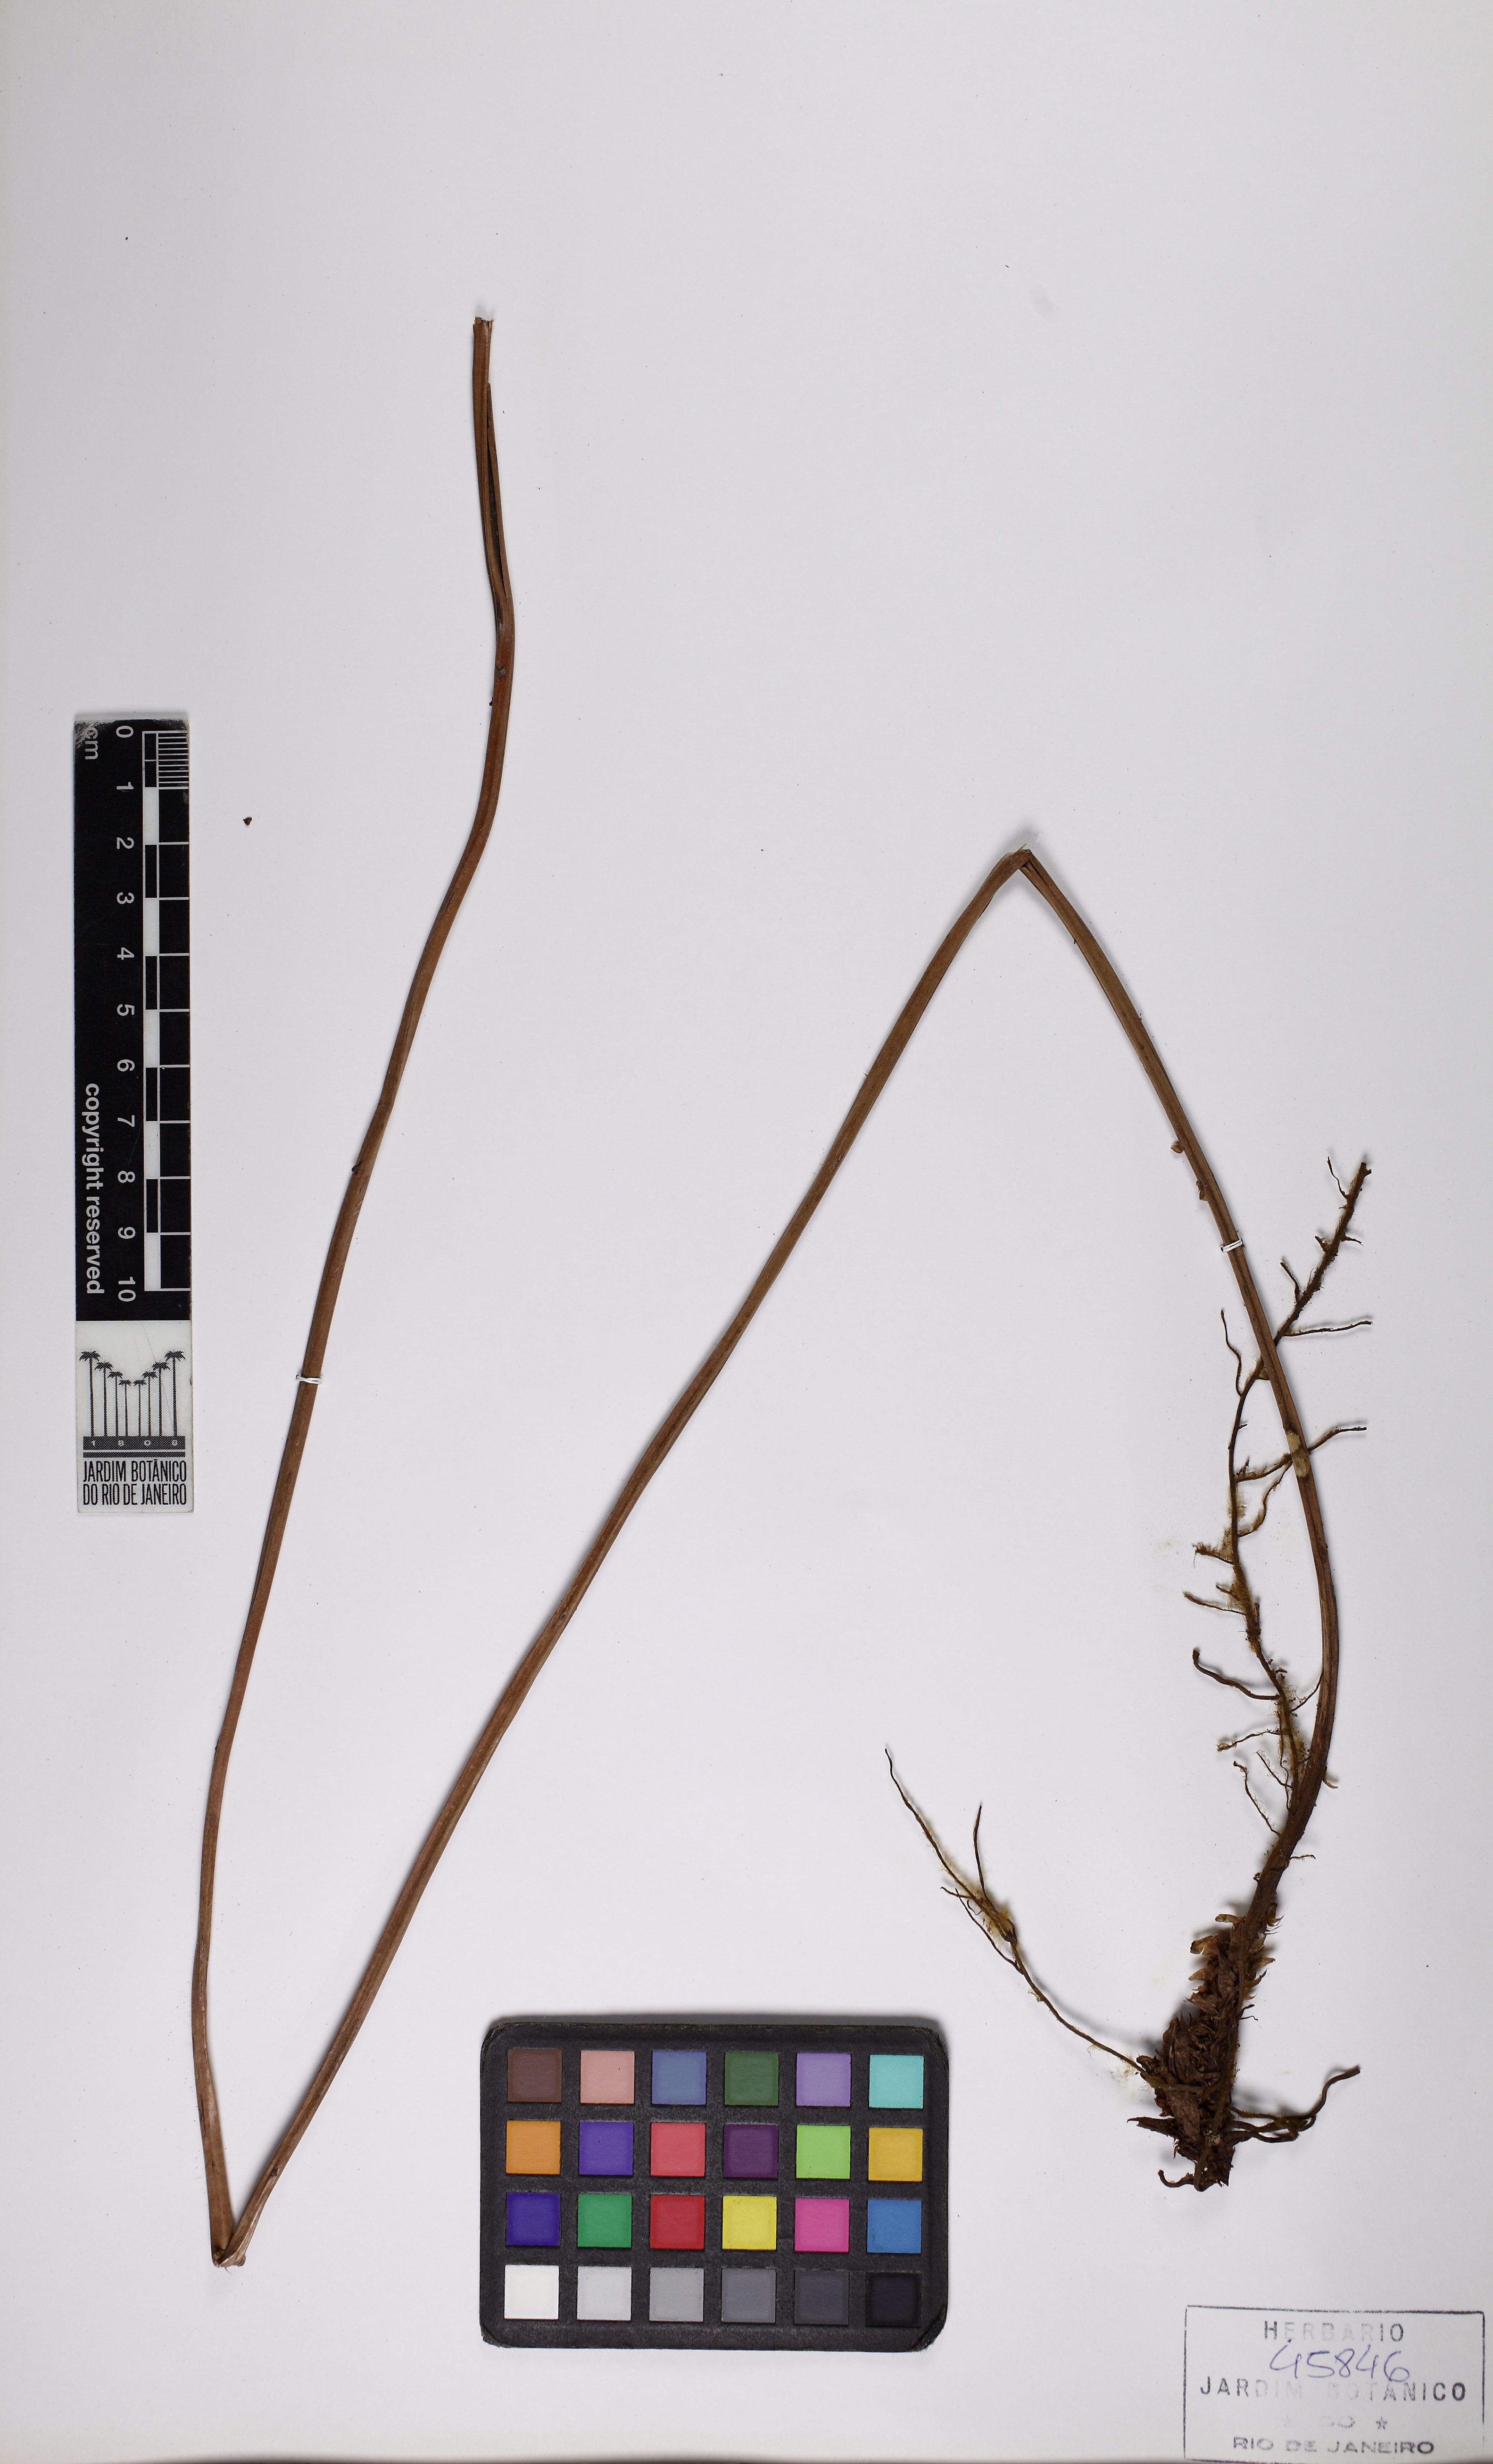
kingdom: Plantae
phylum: Tracheophyta
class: Polypodiopsida
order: Polypodiales
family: Thelypteridaceae
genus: Amauropelta
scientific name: Amauropelta patula
